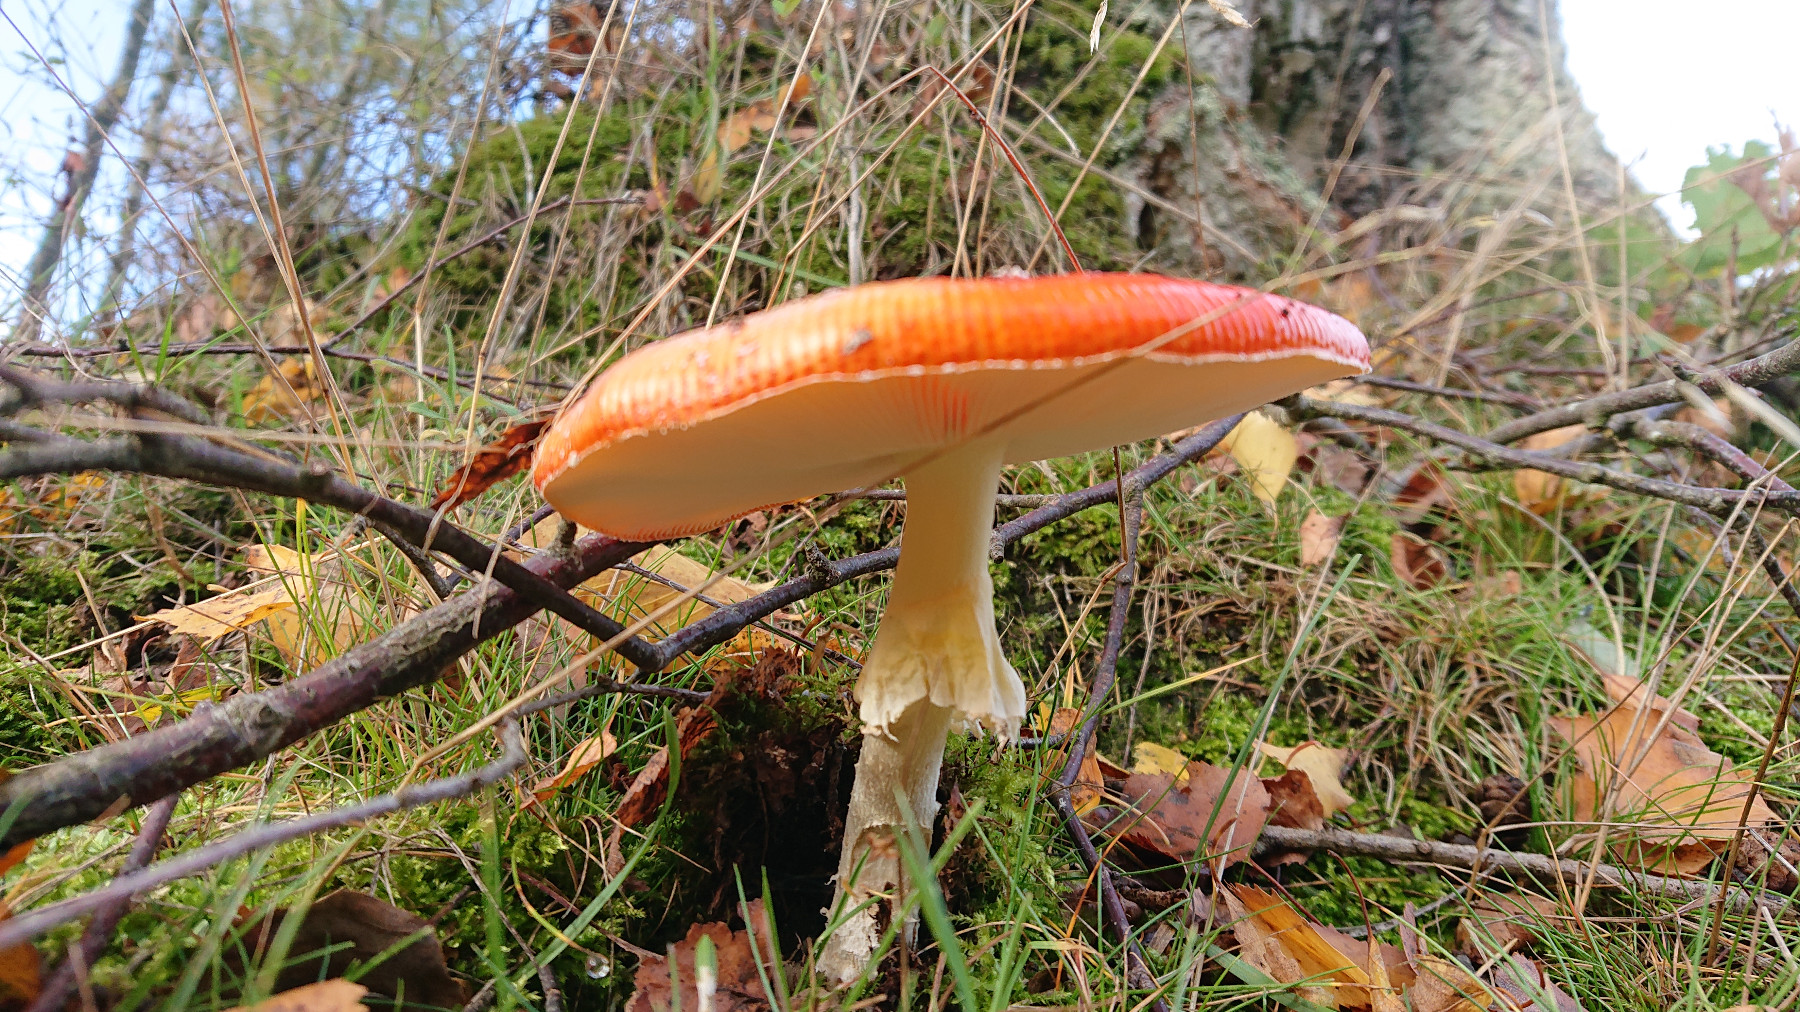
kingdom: Fungi
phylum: Basidiomycota
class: Agaricomycetes
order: Agaricales
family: Amanitaceae
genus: Amanita
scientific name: Amanita muscaria
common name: rød fluesvamp
